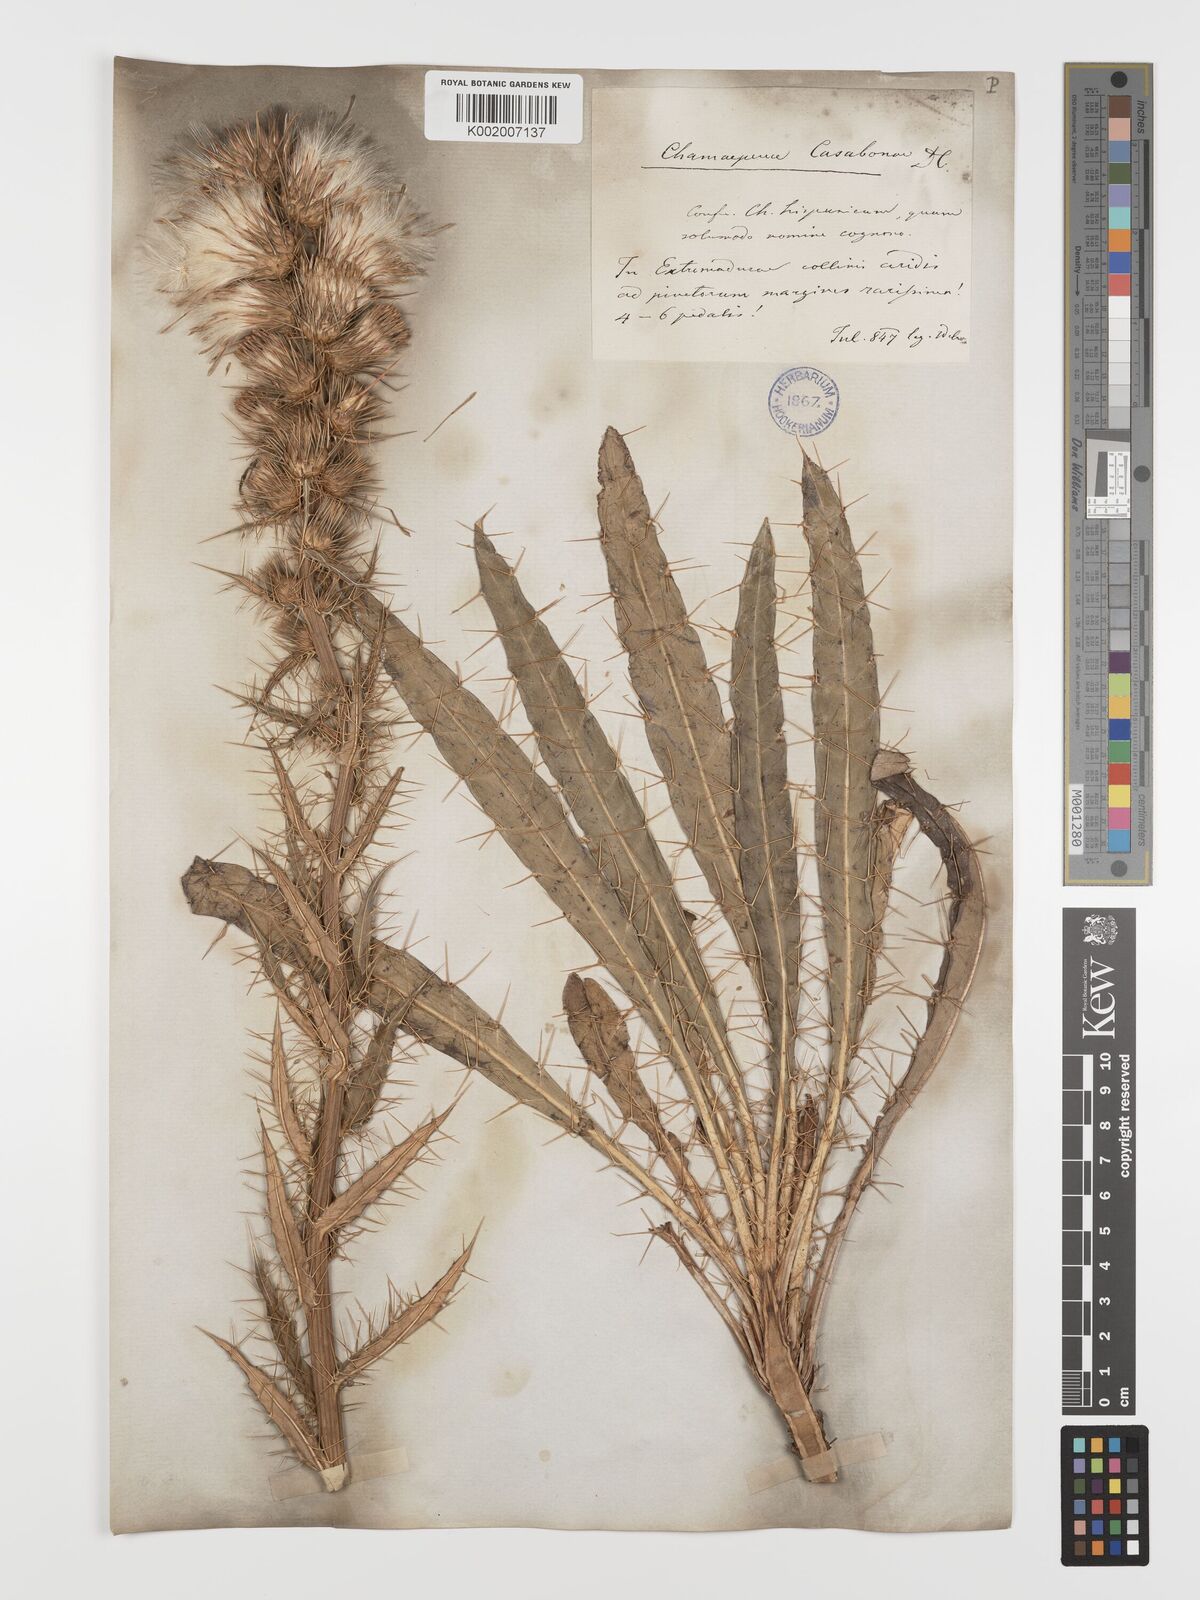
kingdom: Plantae
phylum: Tracheophyta
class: Magnoliopsida
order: Asterales
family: Asteraceae
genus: Ptilostemon
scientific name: Ptilostemon casabonae
